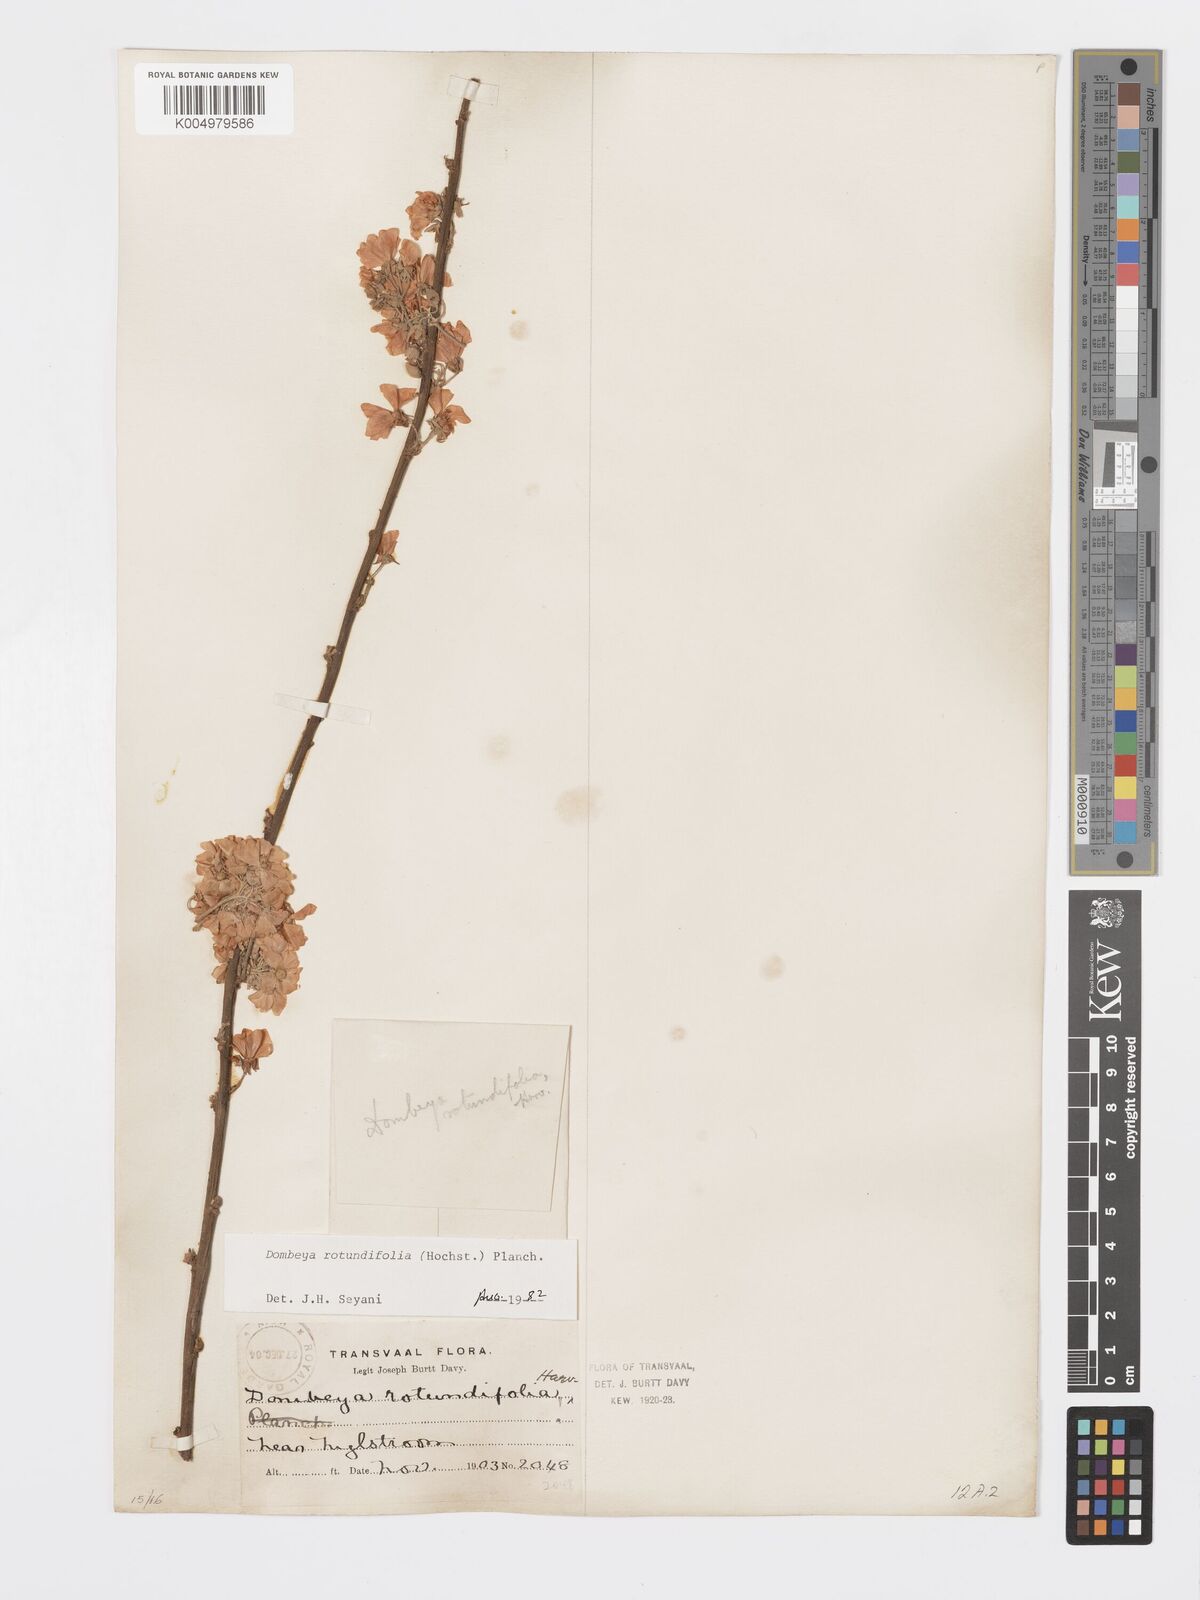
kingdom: Plantae
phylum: Tracheophyta
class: Magnoliopsida
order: Malvales
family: Malvaceae
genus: Dombeya
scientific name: Dombeya rotundifolia
